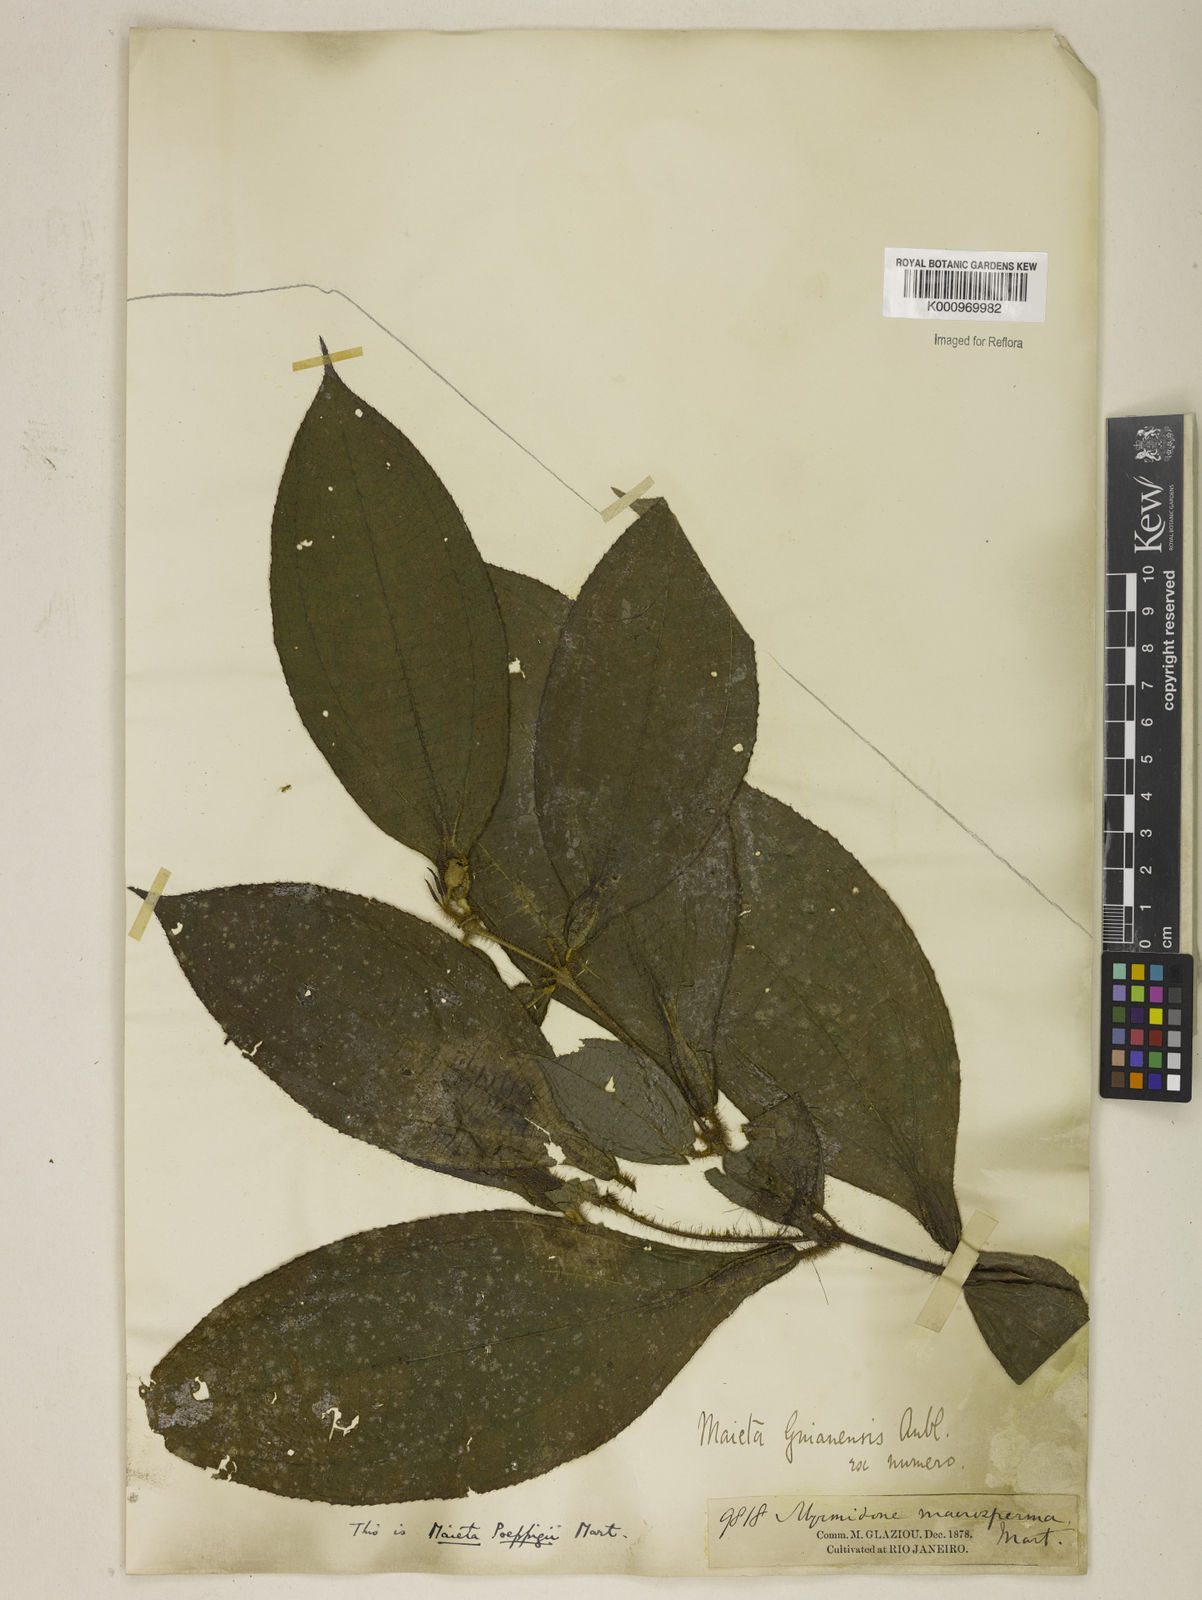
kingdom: Plantae
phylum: Tracheophyta
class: Magnoliopsida
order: Myrtales
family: Melastomataceae
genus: Miconia
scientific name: Miconia alternidomatia
